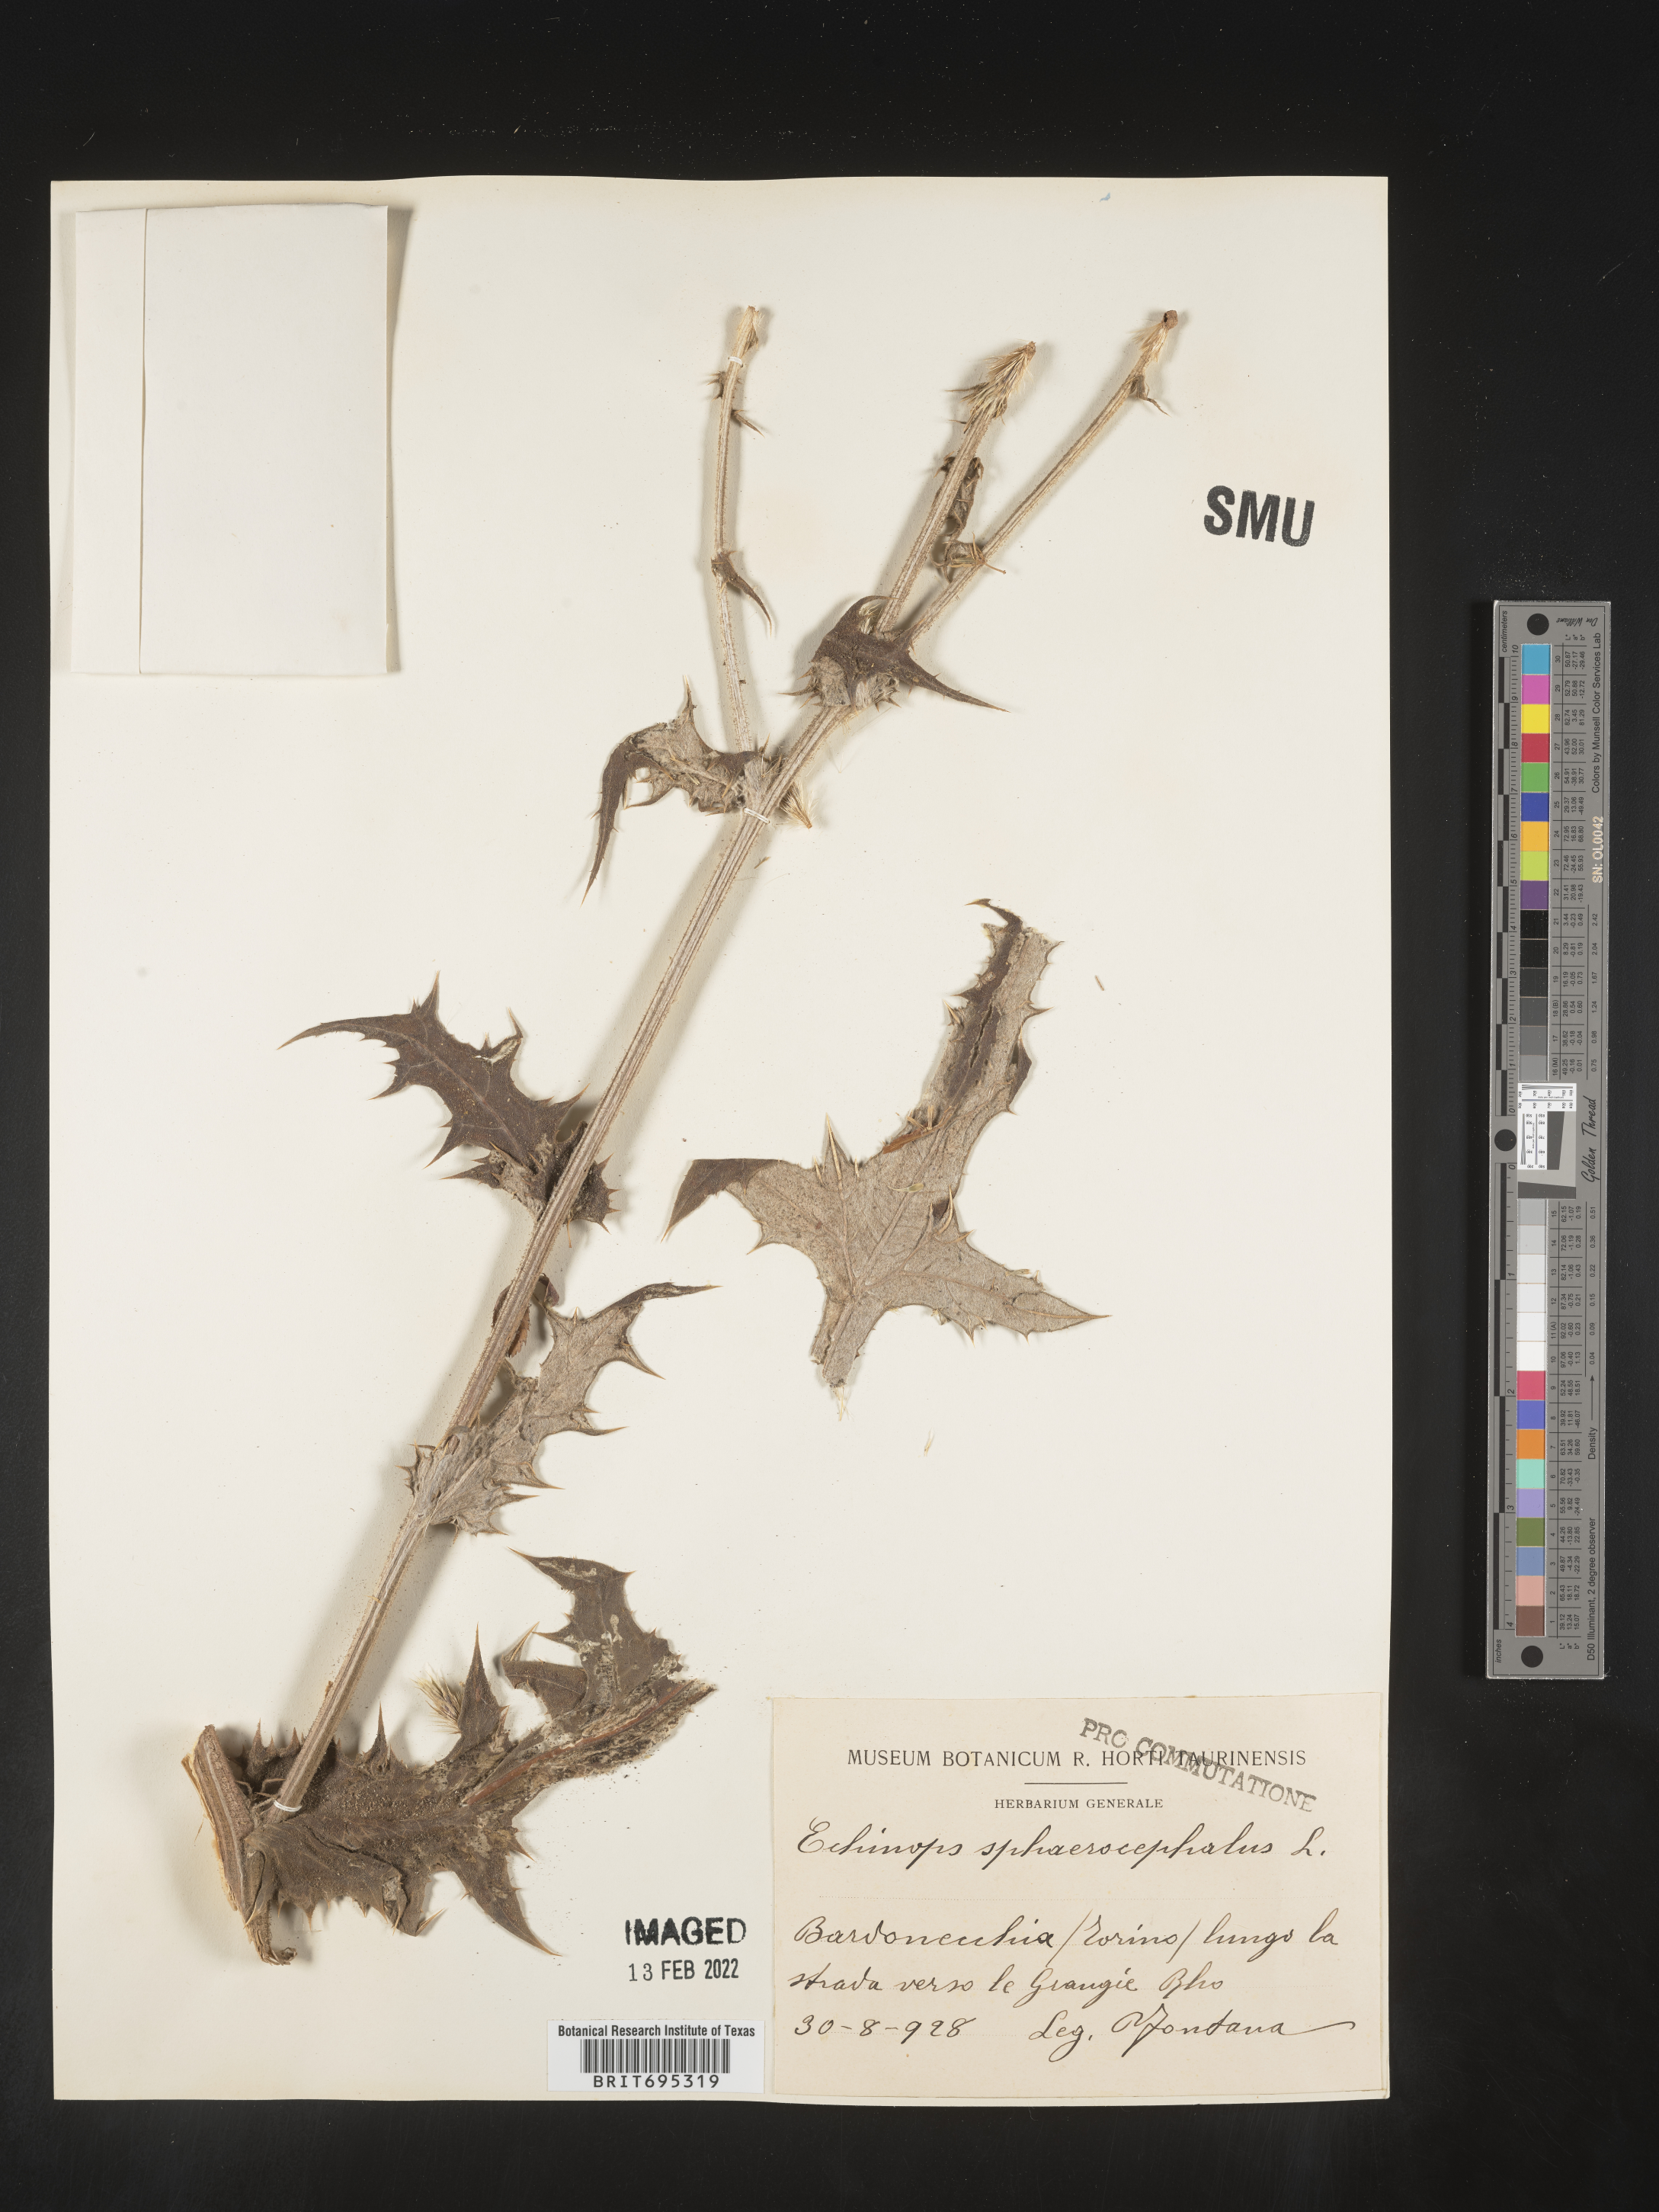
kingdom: Plantae
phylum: Tracheophyta
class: Magnoliopsida
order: Asterales
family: Asteraceae
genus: Echinops
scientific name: Echinops
